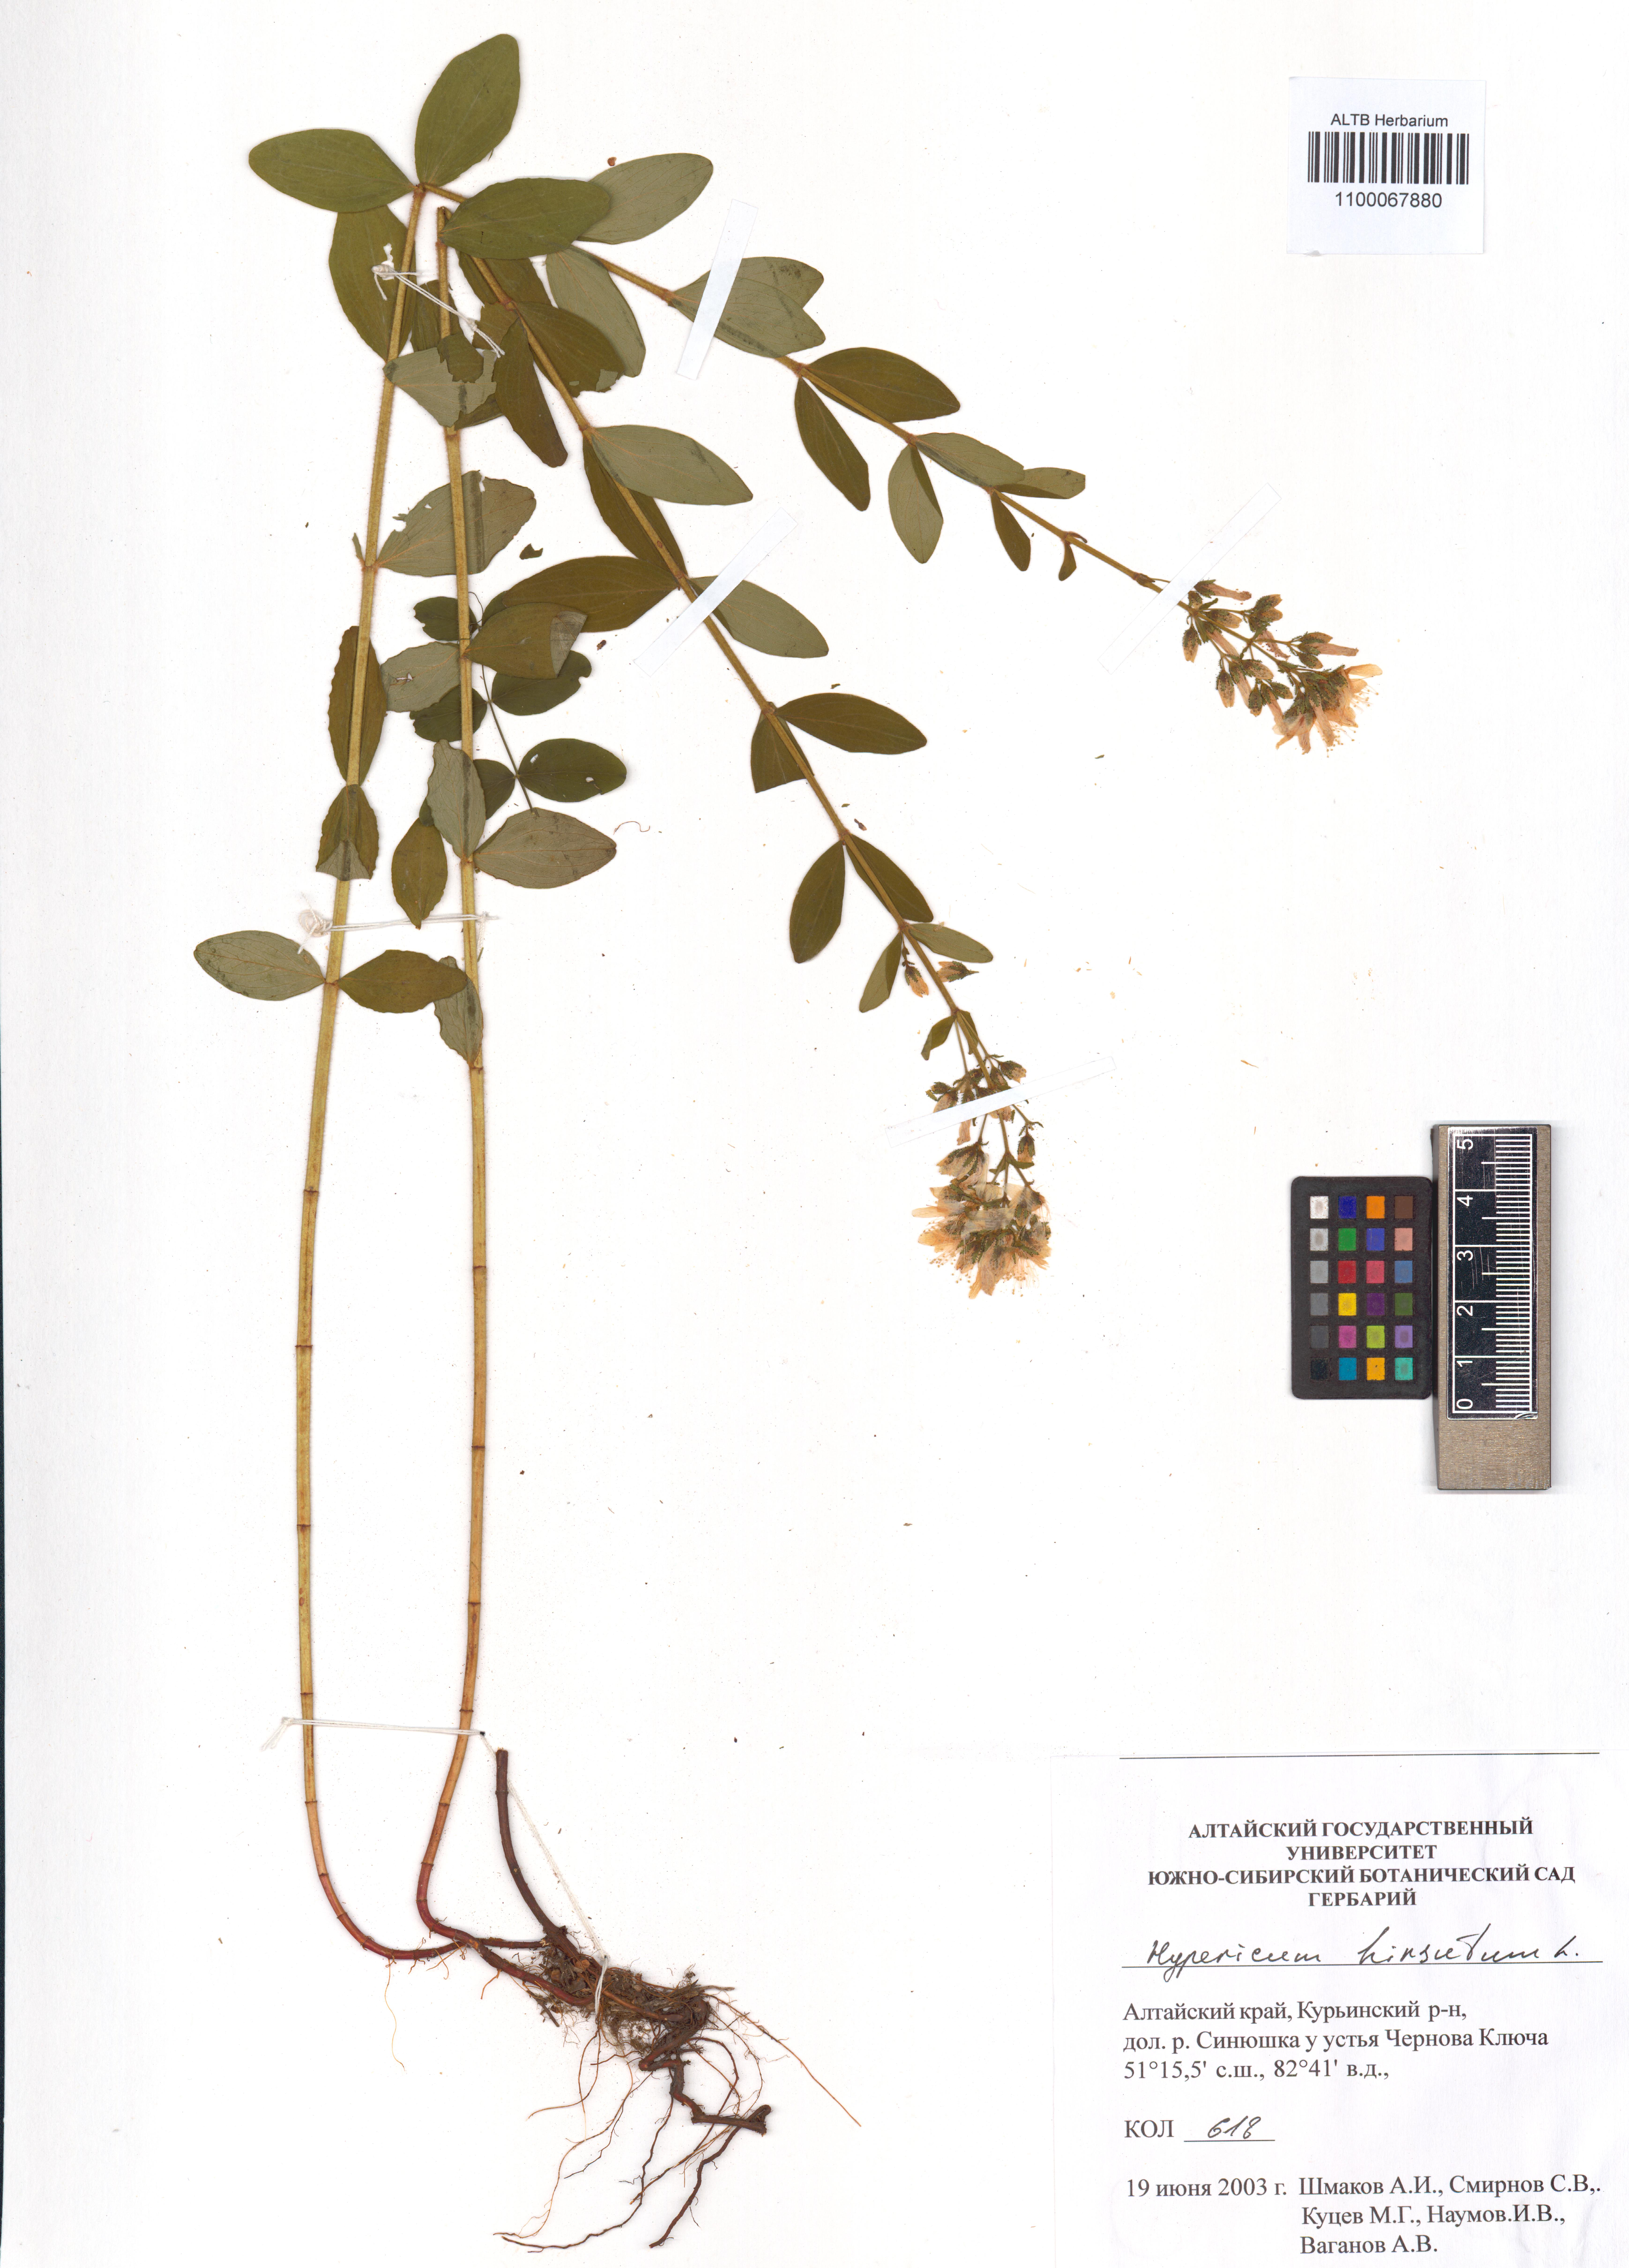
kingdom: Plantae
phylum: Tracheophyta
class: Magnoliopsida
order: Malpighiales
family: Hypericaceae
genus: Hypericum
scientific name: Hypericum hirsutum
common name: Hairy st. john's-wort
